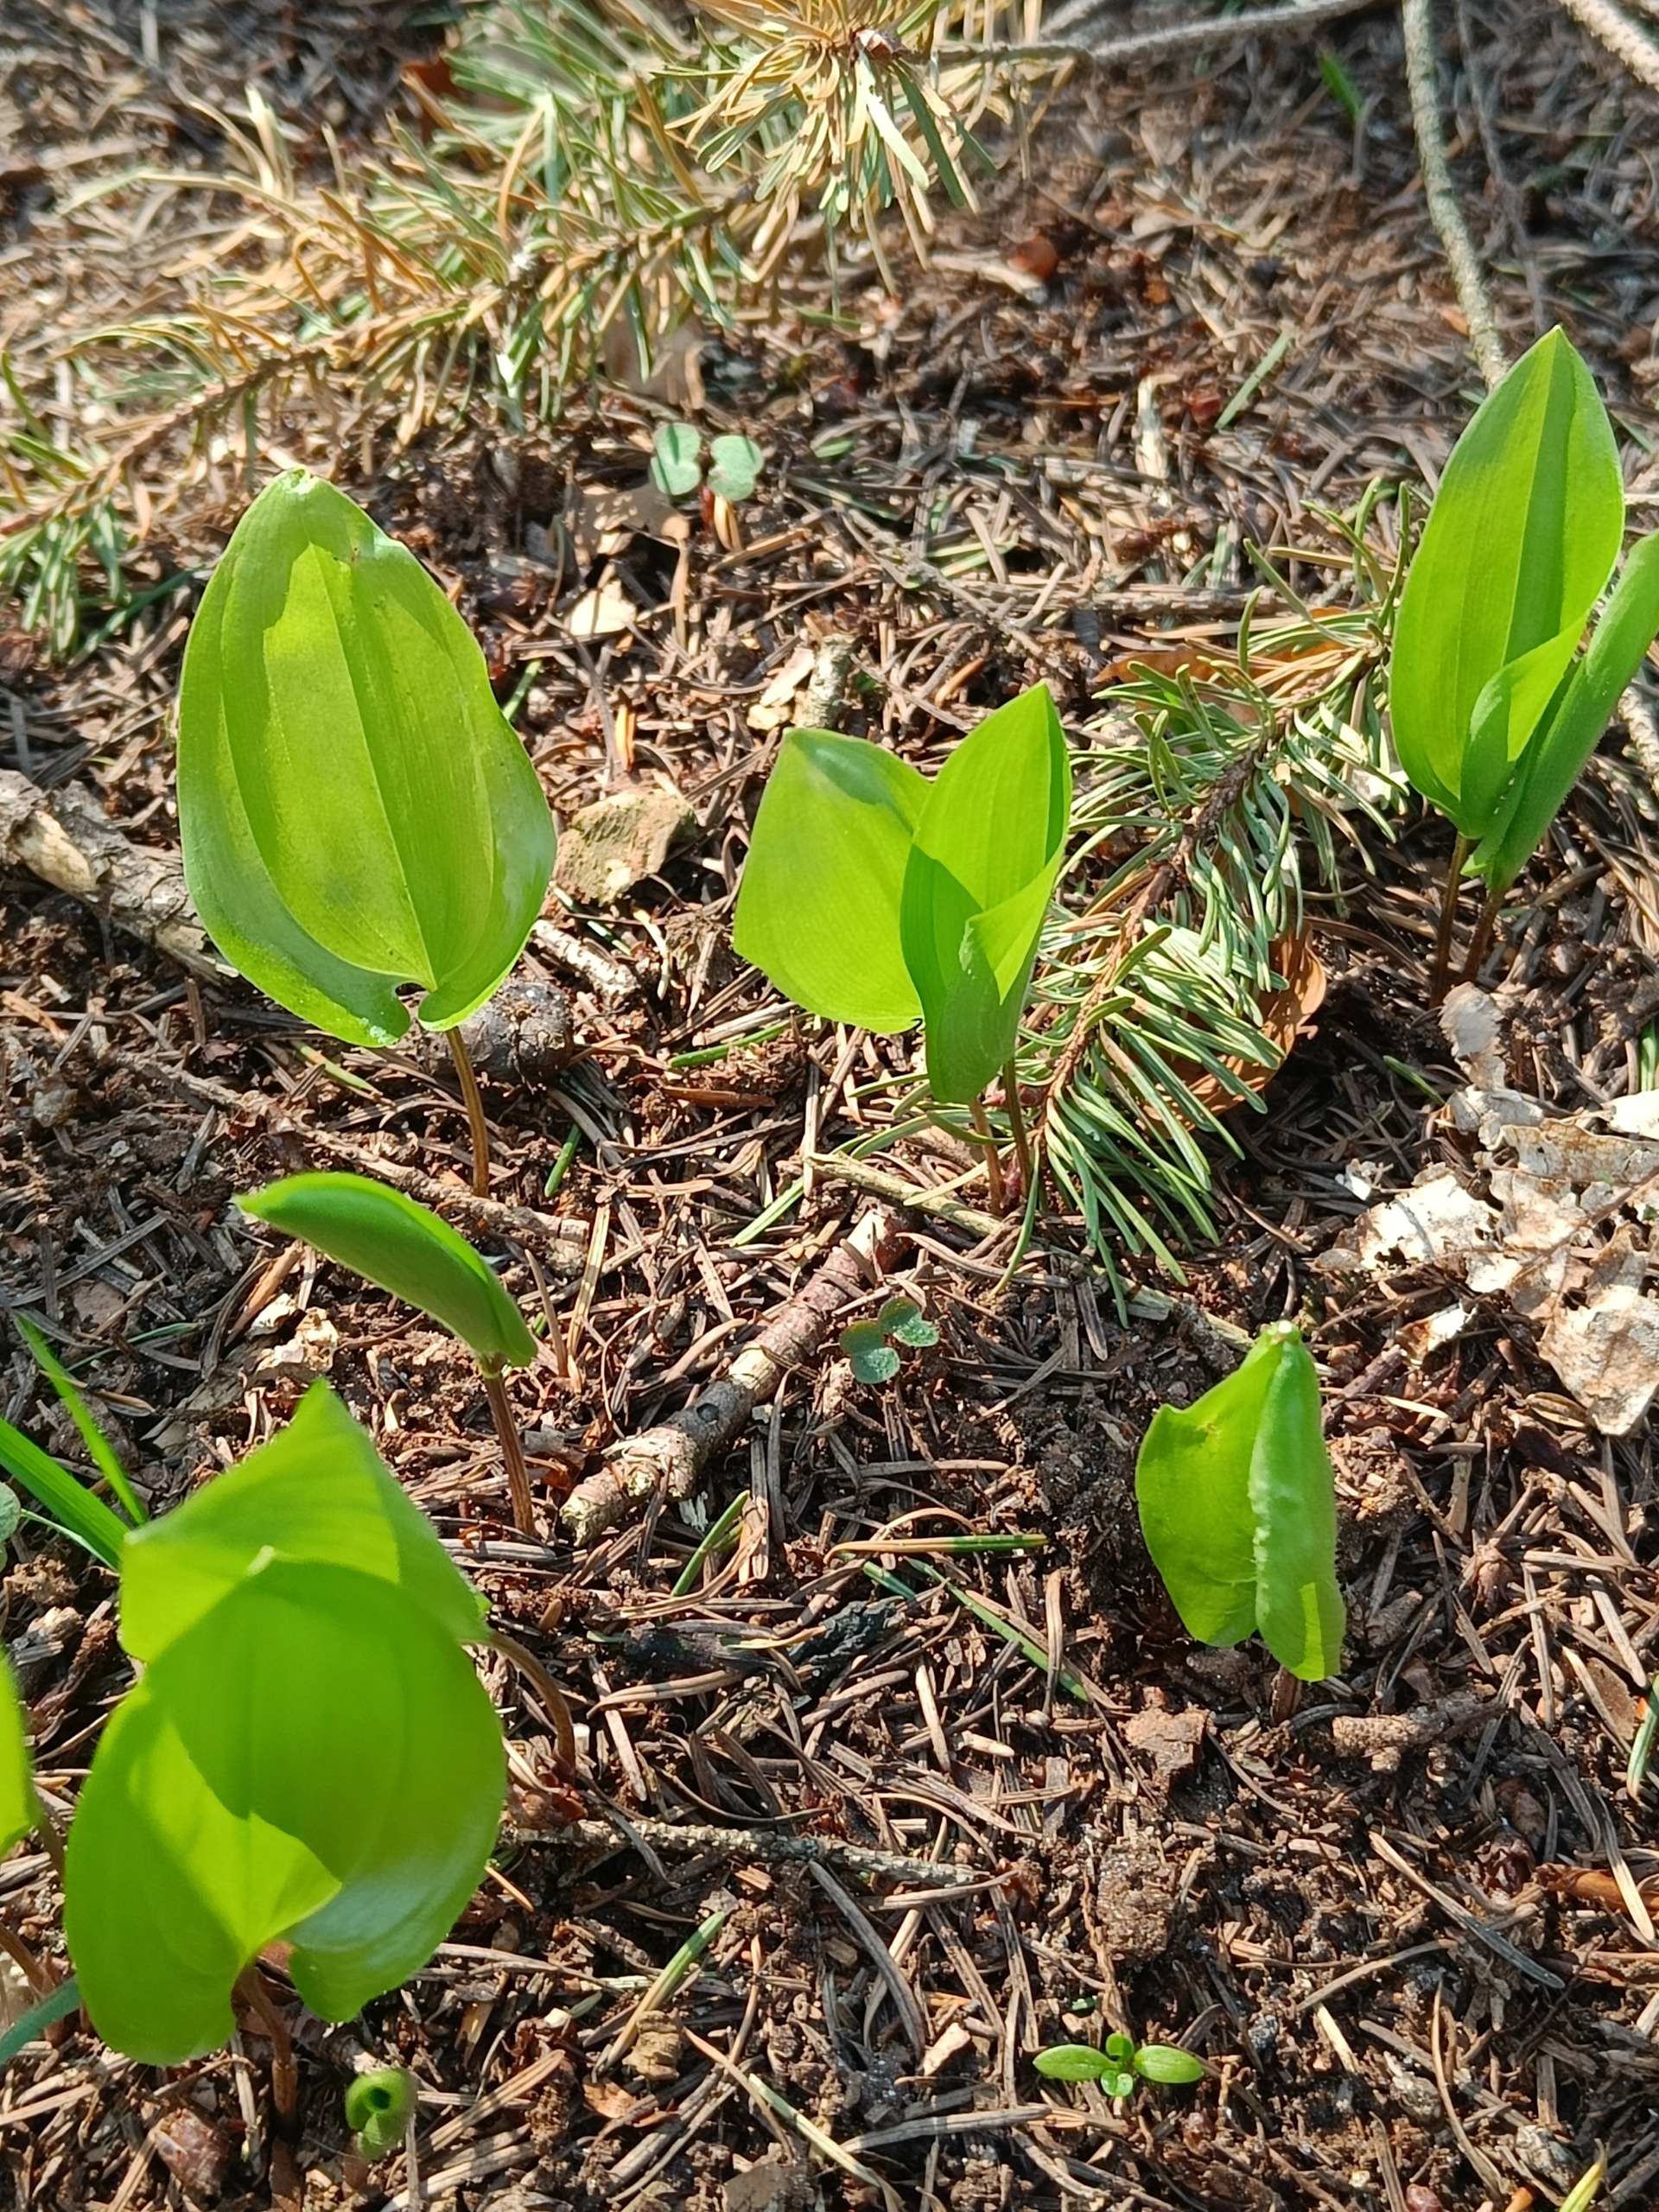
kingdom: Plantae
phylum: Tracheophyta
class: Liliopsida
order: Asparagales
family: Asparagaceae
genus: Maianthemum
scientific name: Maianthemum bifolium
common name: Majblomst
